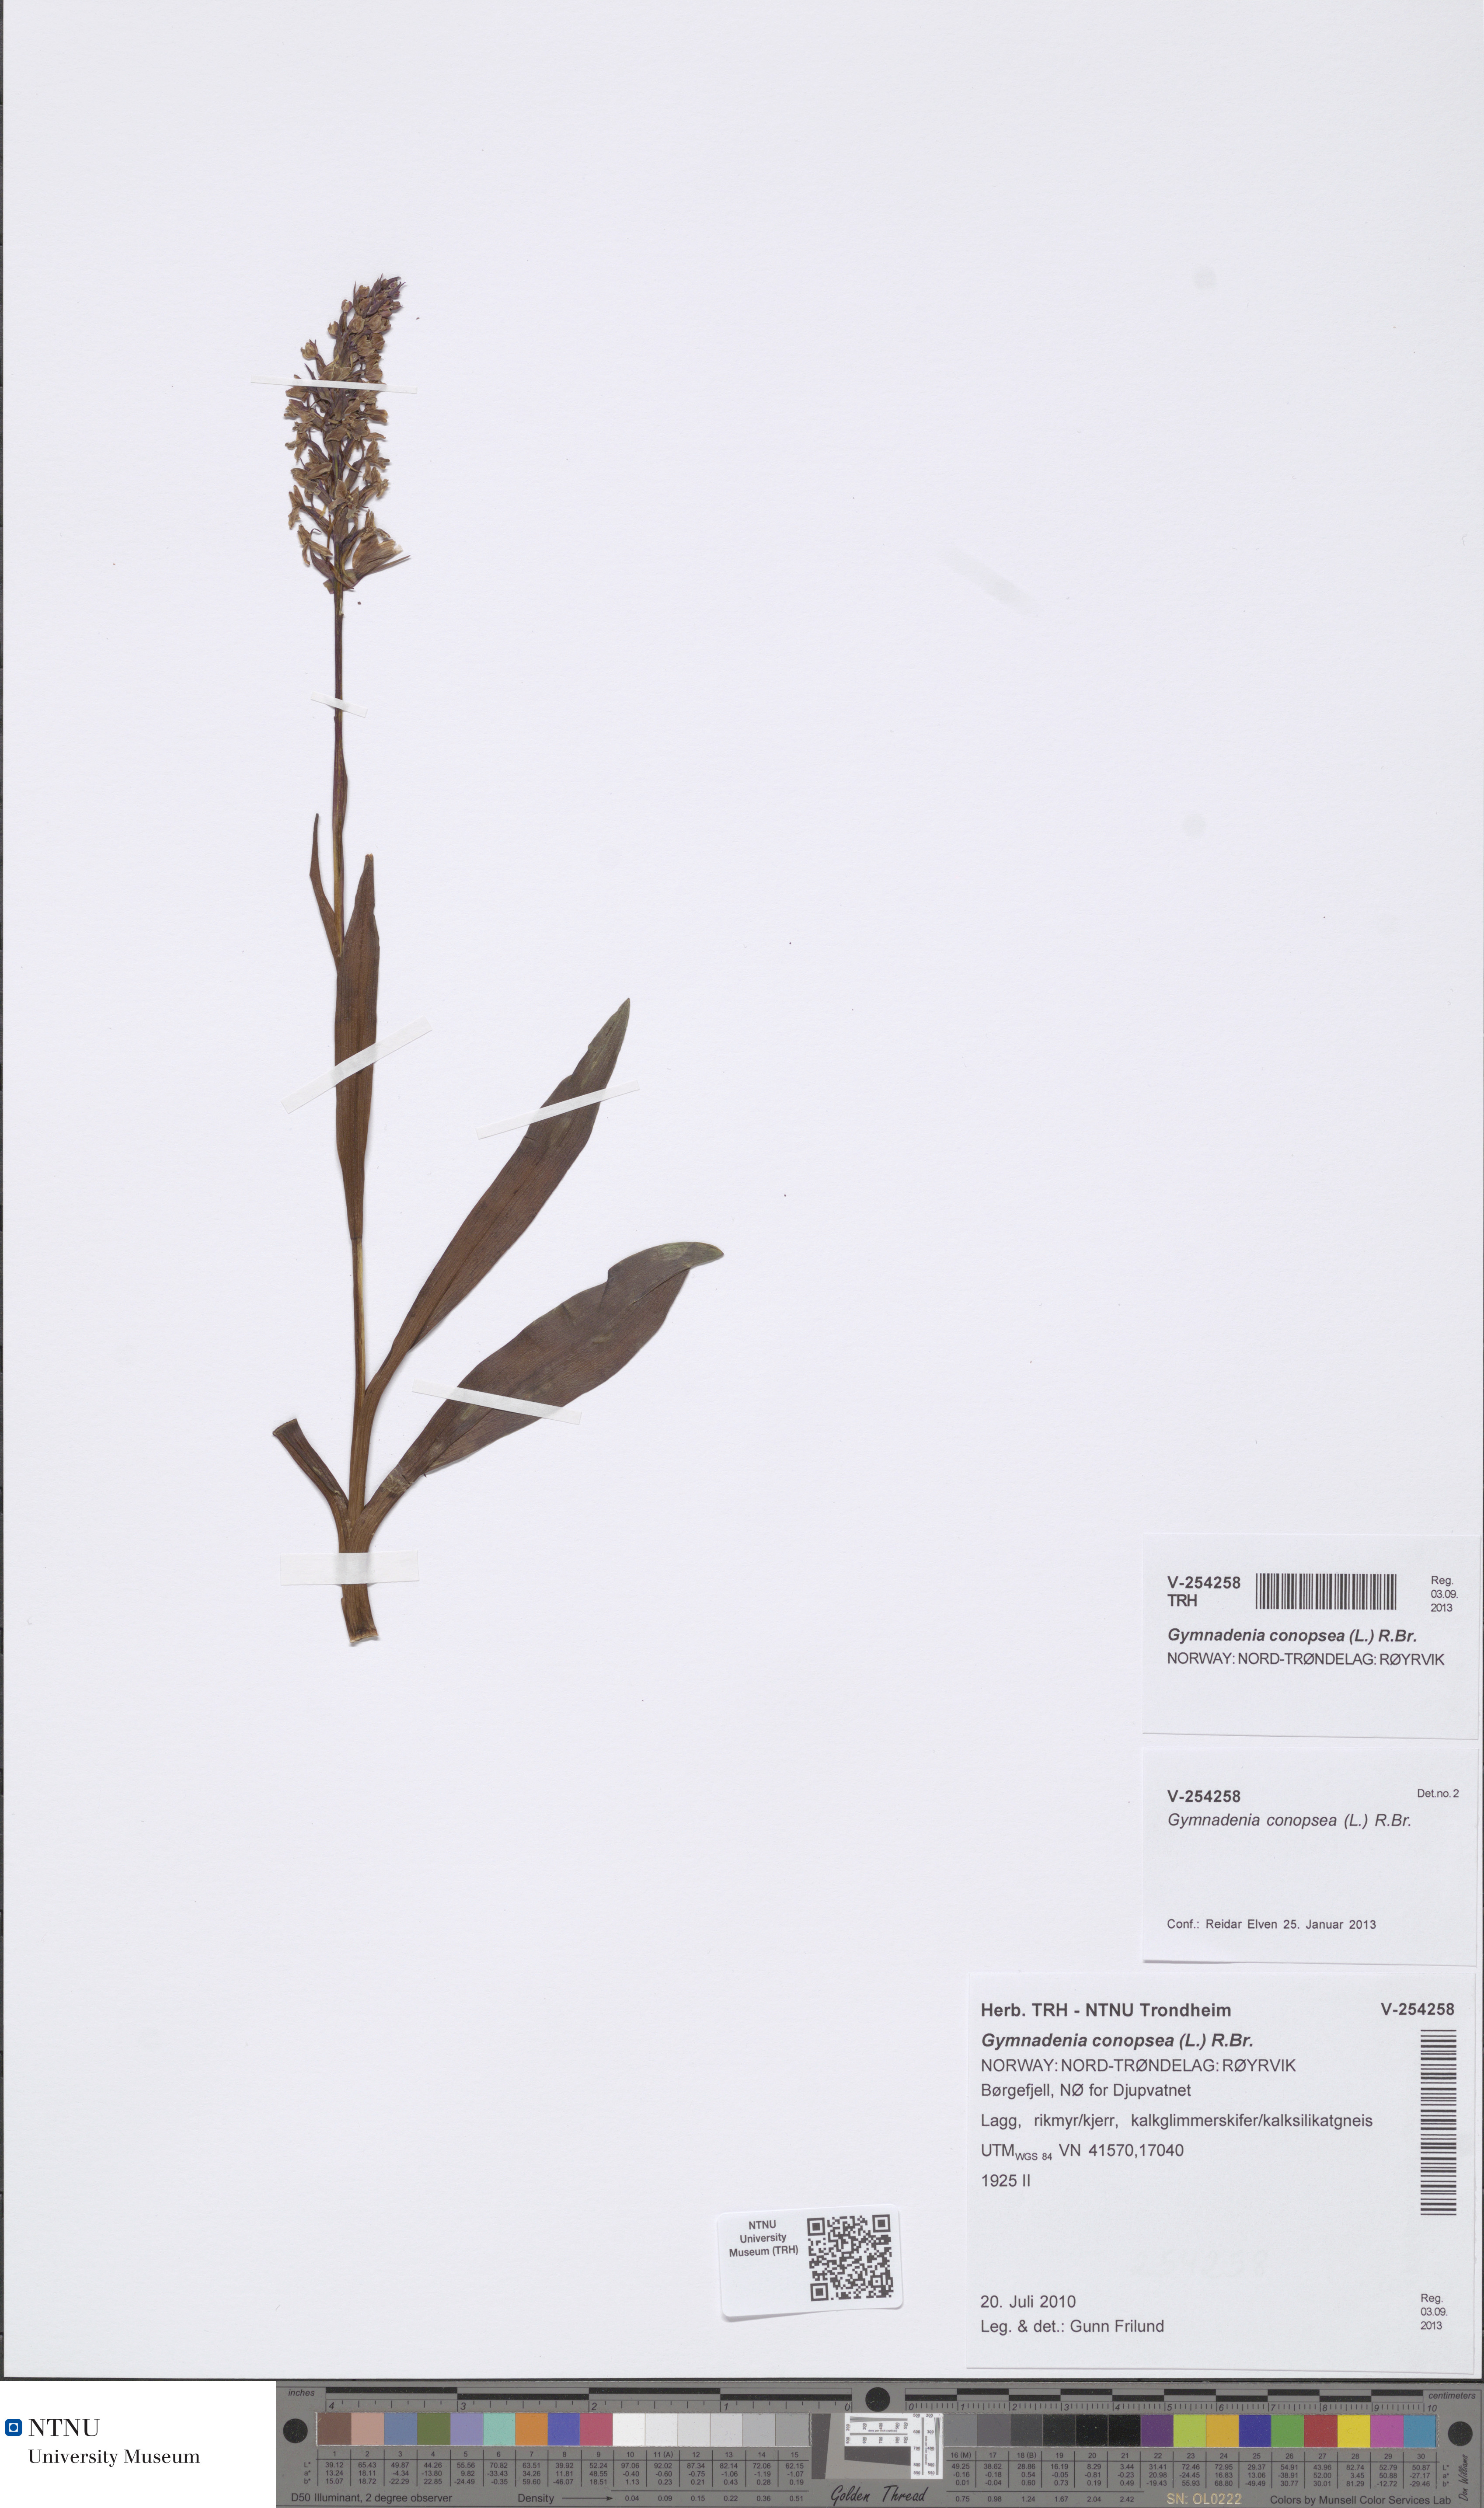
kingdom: Plantae
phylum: Tracheophyta
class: Liliopsida
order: Asparagales
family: Orchidaceae
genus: Gymnadenia
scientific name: Gymnadenia conopsea
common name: Fragrant orchid
